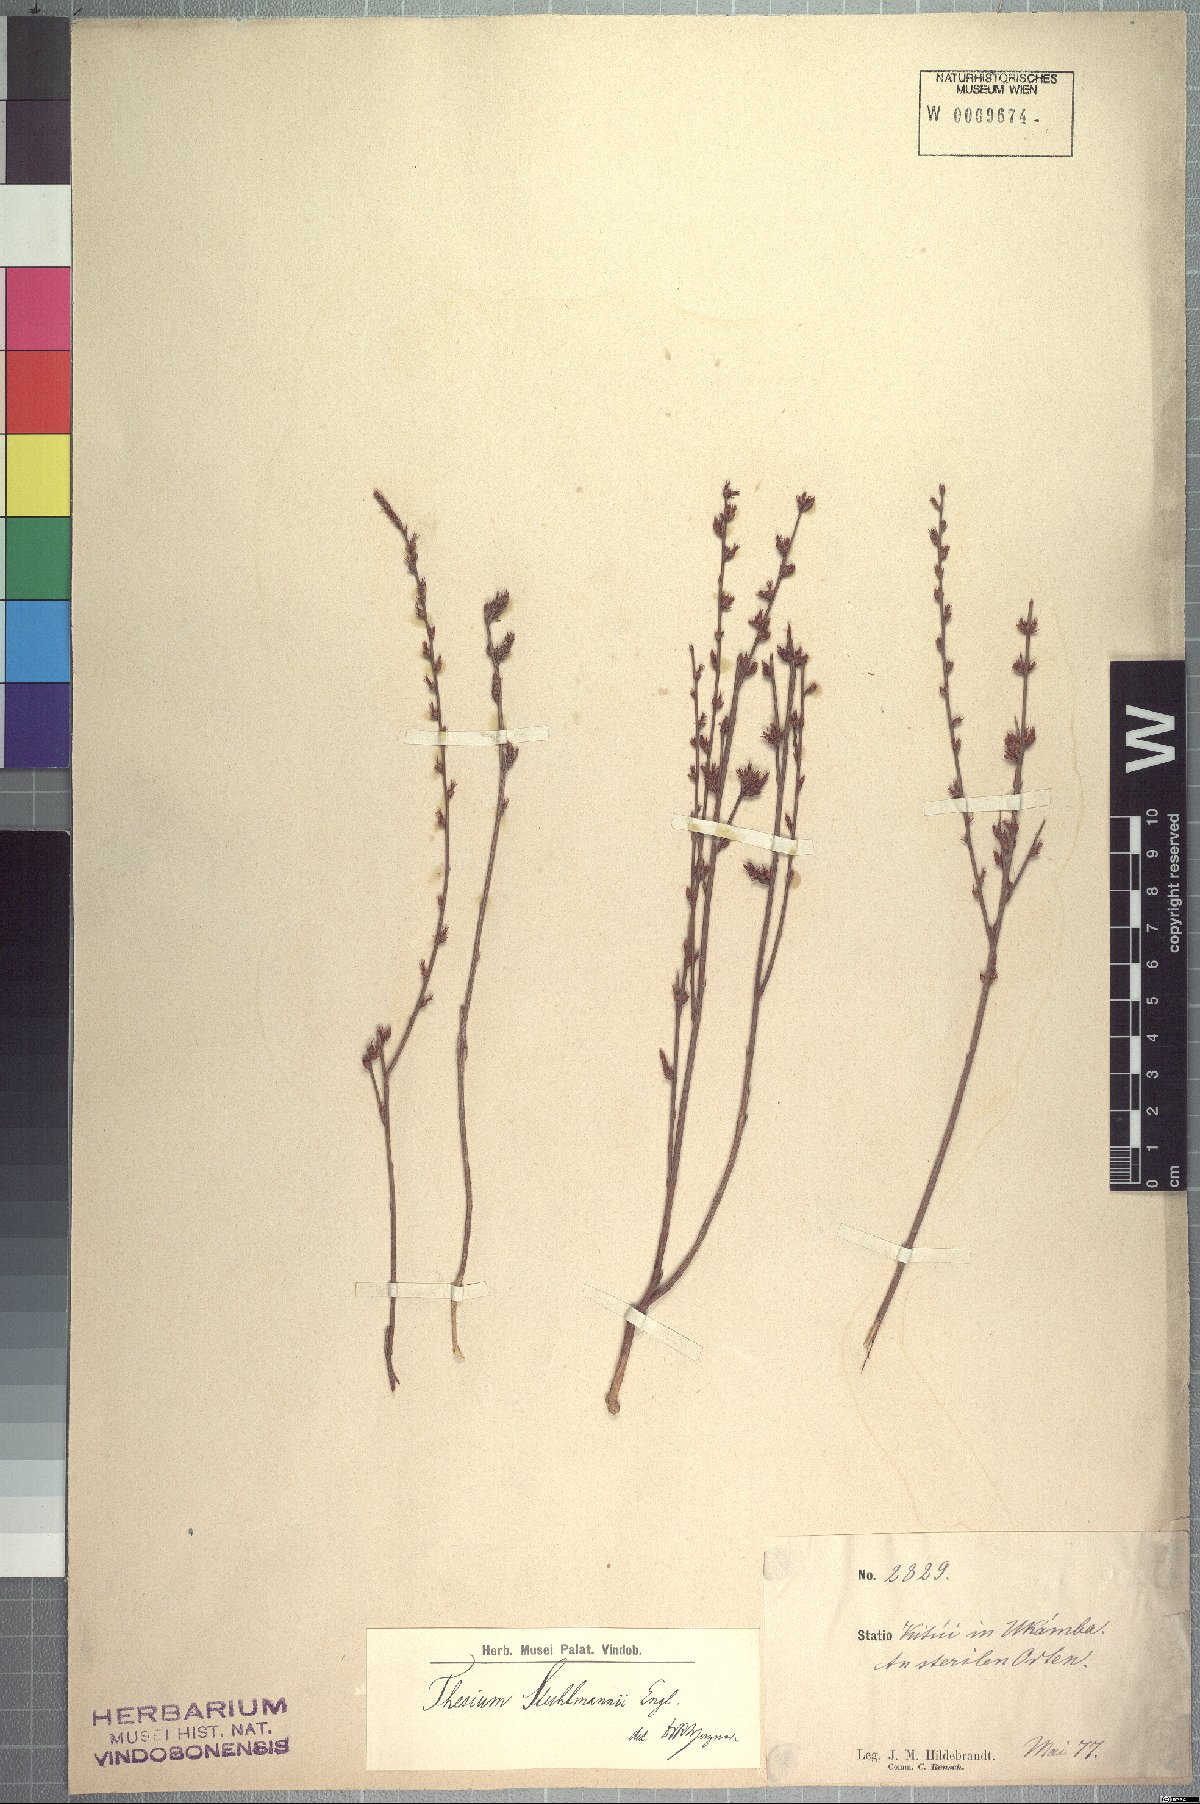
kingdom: Plantae
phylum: Tracheophyta
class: Magnoliopsida
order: Santalales
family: Thesiaceae
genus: Thesium
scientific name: Thesium stuhlmannii
